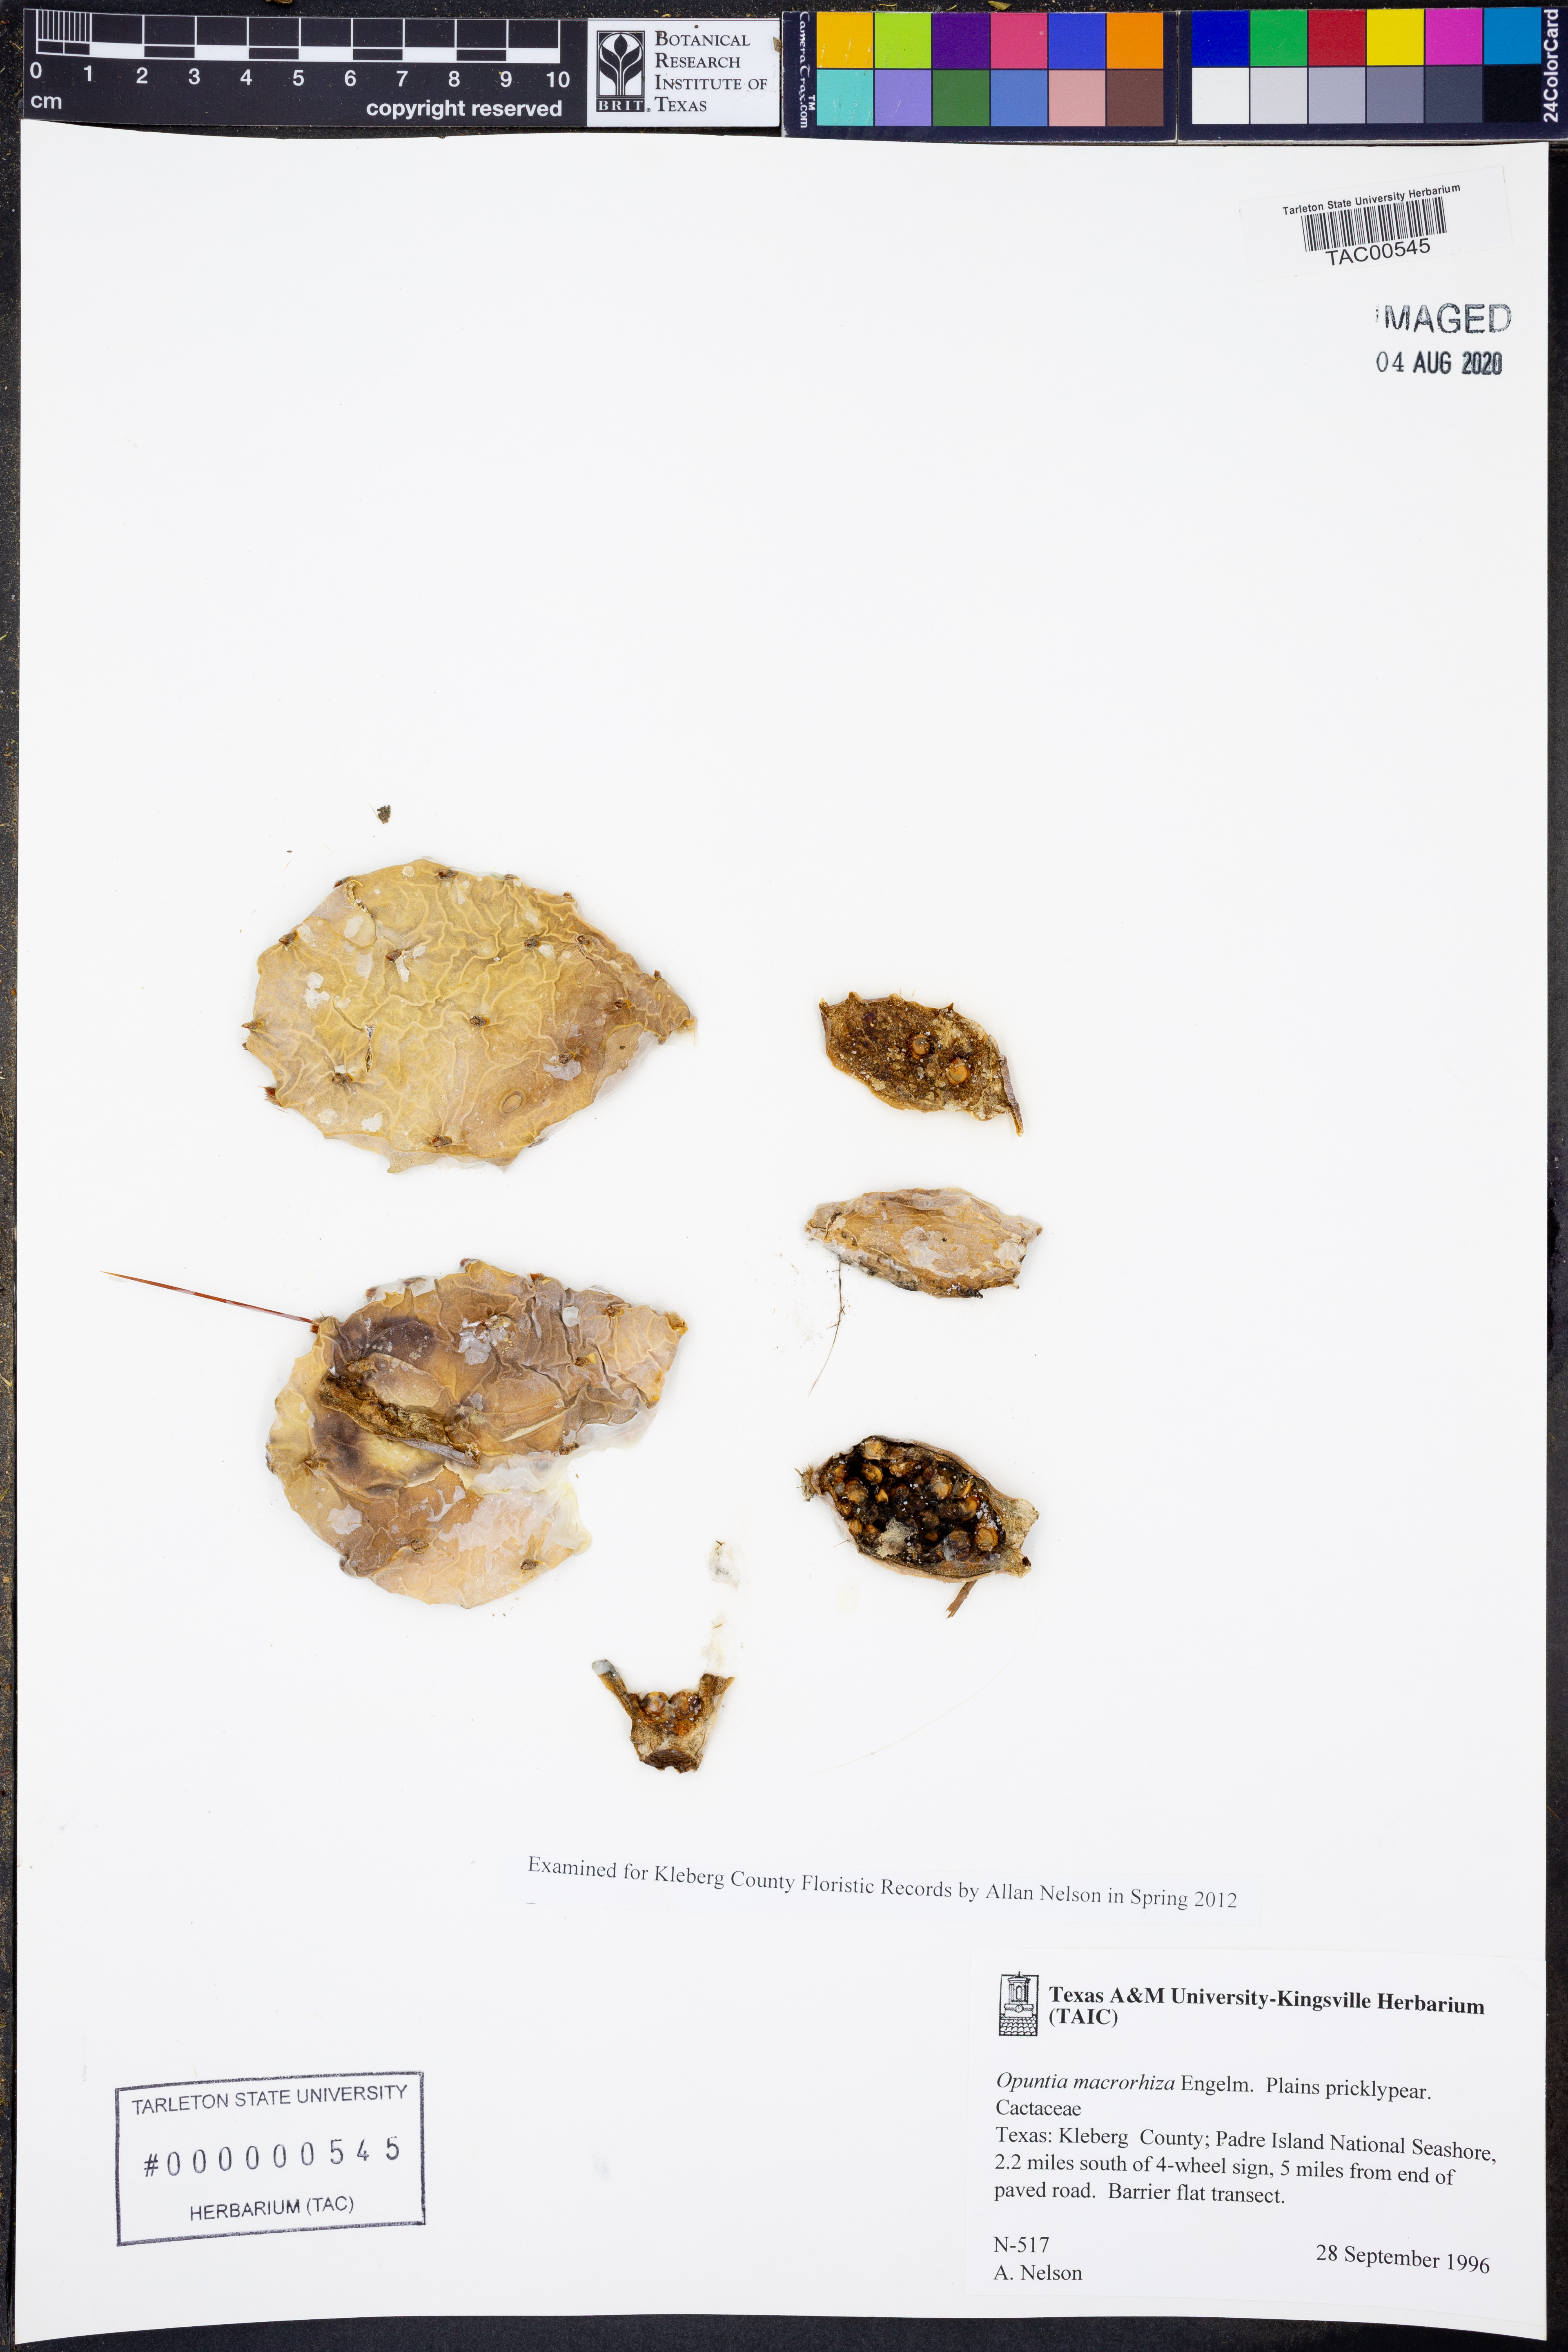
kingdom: Plantae
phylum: Tracheophyta
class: Magnoliopsida
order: Caryophyllales
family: Cactaceae
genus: Opuntia
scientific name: Opuntia macrorhiza
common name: Grassland pricklypear
